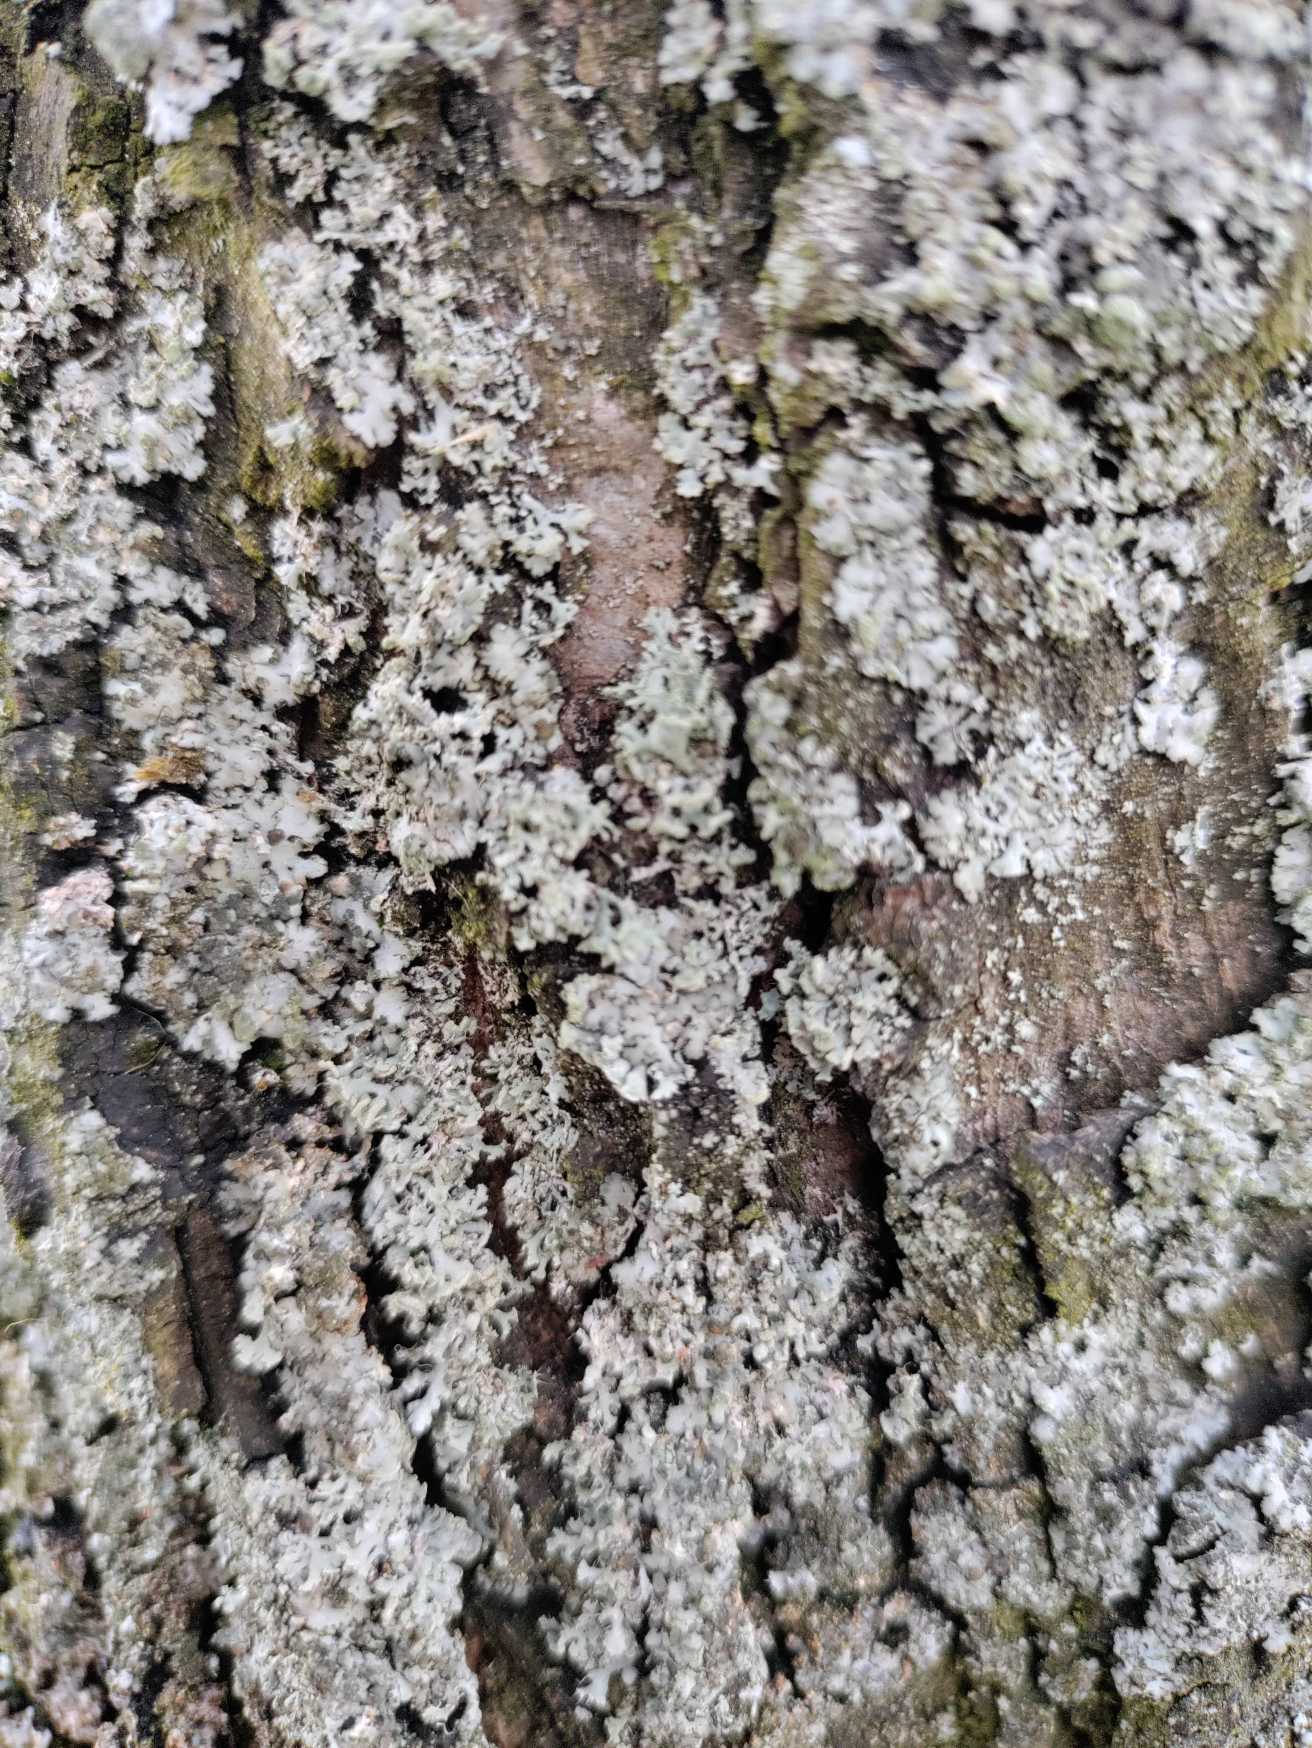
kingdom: Fungi
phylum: Ascomycota
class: Lecanoromycetes
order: Caliciales
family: Physciaceae
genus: Phaeophyscia
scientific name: Phaeophyscia orbicularis
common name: Grågrøn rosetlav
